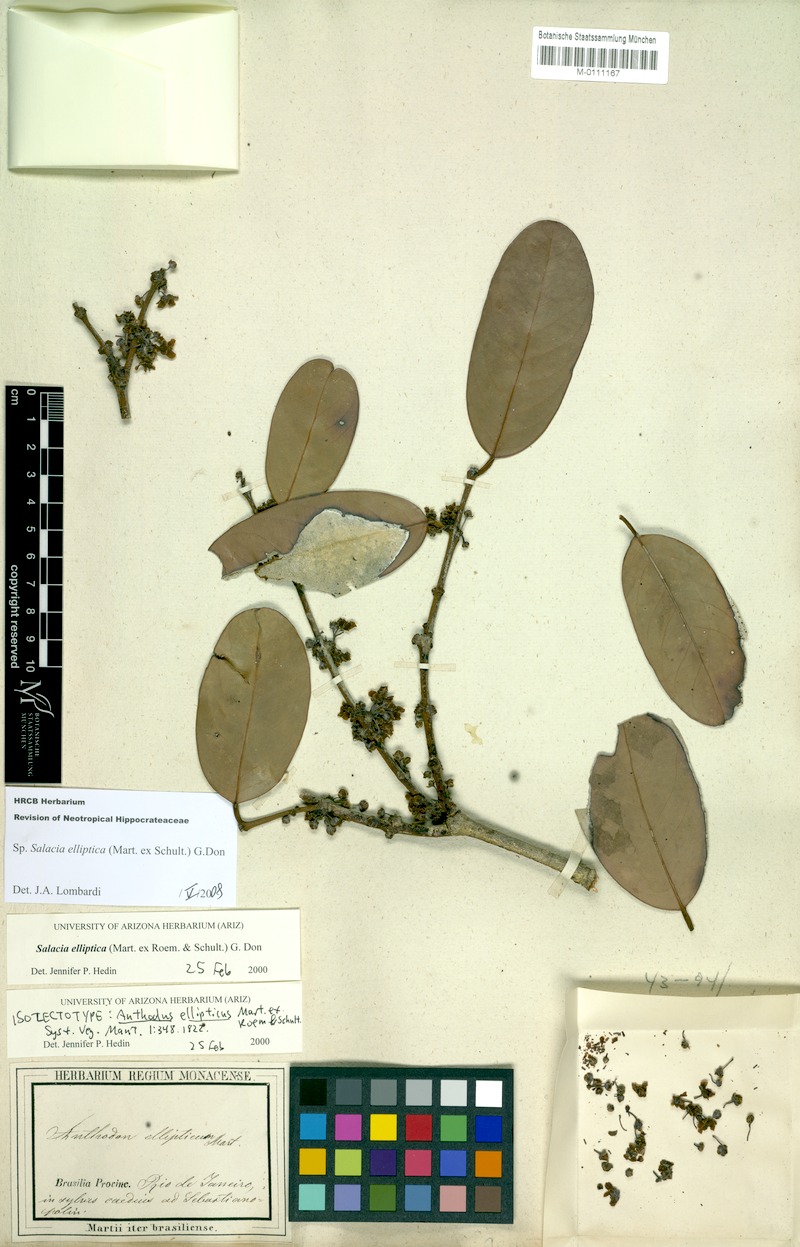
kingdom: Plantae
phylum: Tracheophyta
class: Magnoliopsida
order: Celastrales
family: Celastraceae
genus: Salacia
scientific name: Salacia elliptica
